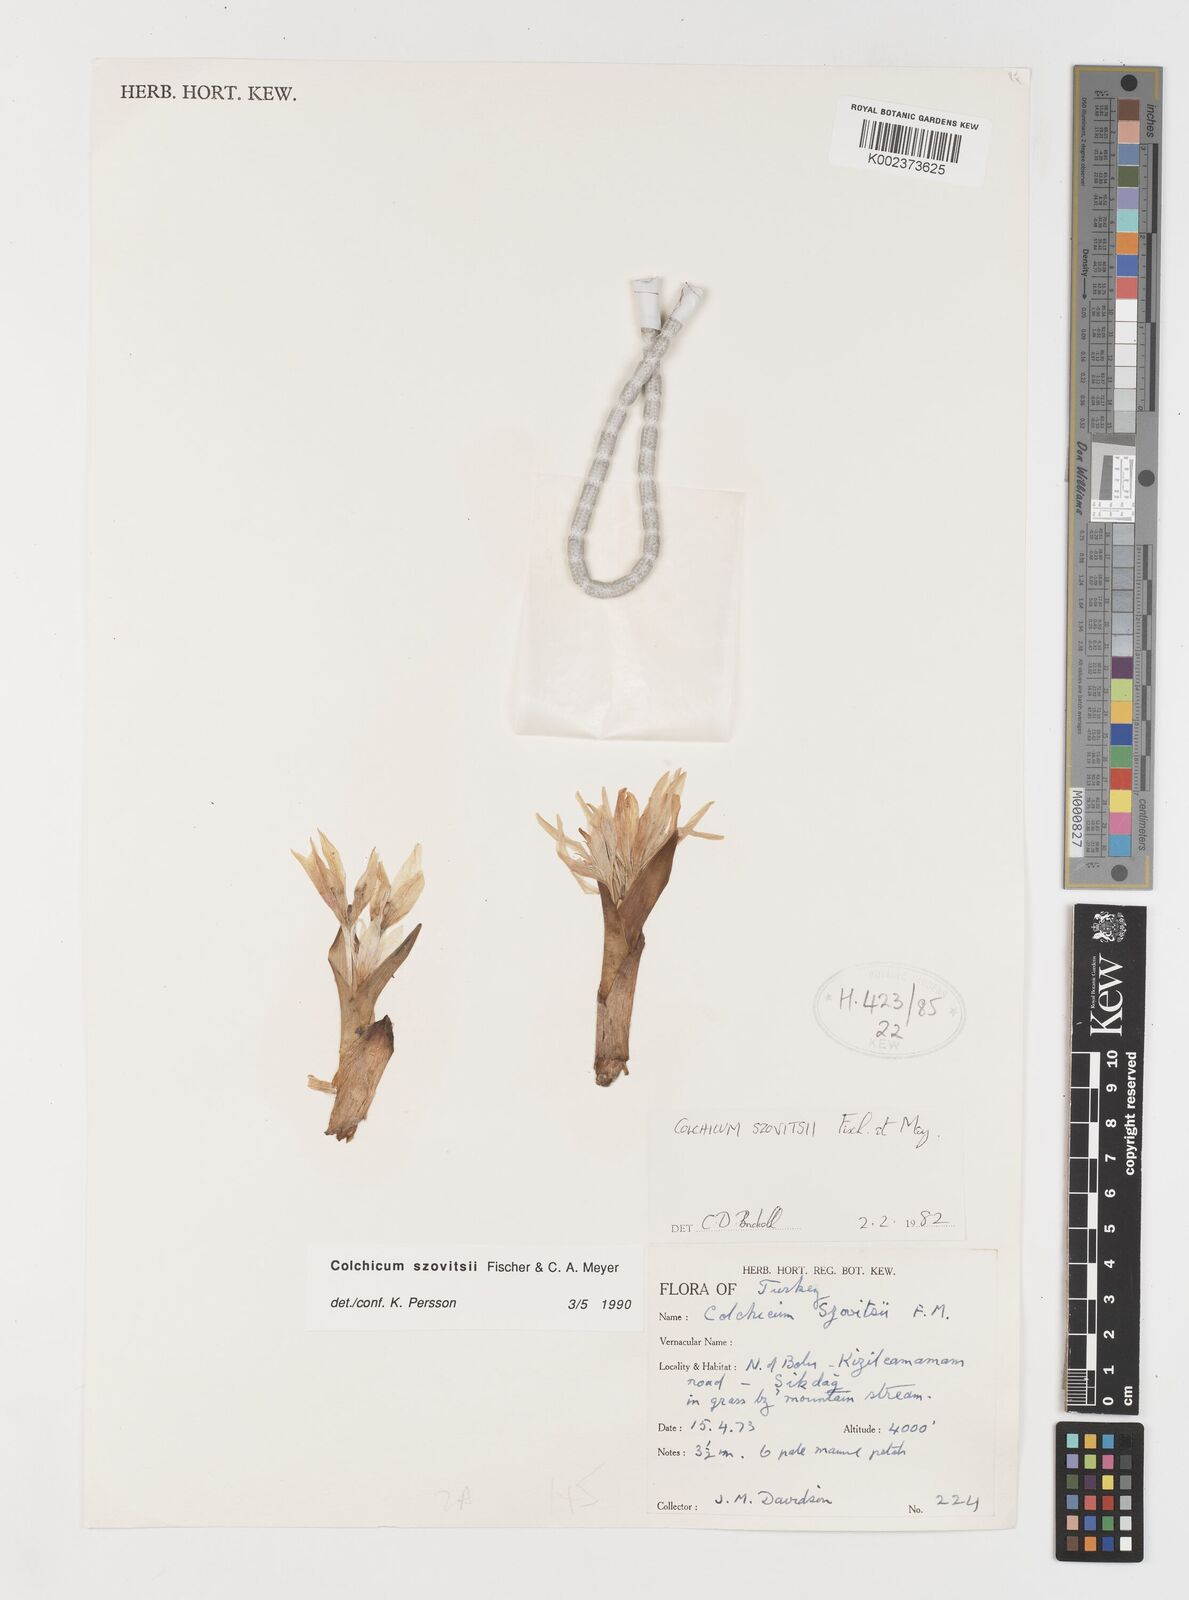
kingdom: Plantae
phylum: Tracheophyta
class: Liliopsida
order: Liliales
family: Colchicaceae
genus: Colchicum
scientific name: Colchicum szovitsii
